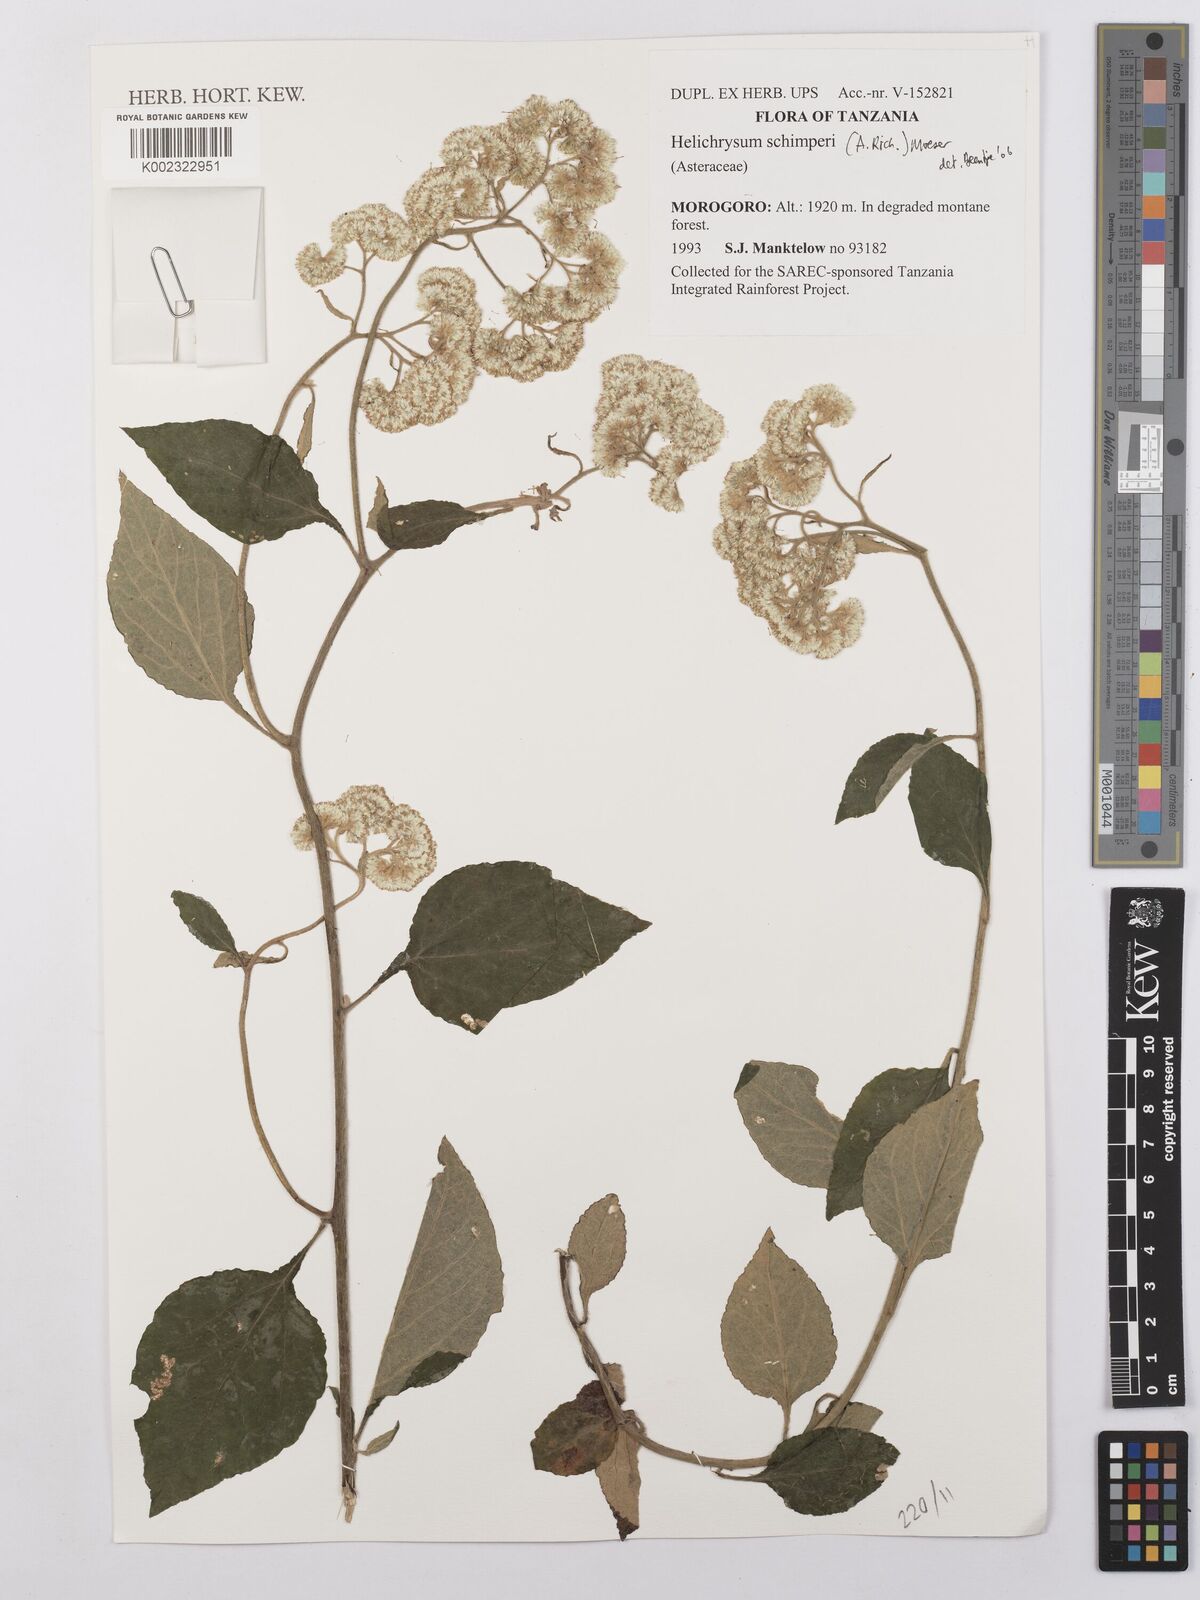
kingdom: Plantae
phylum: Tracheophyta
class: Magnoliopsida
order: Asterales
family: Asteraceae
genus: Helichrysum
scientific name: Helichrysum schimperi
